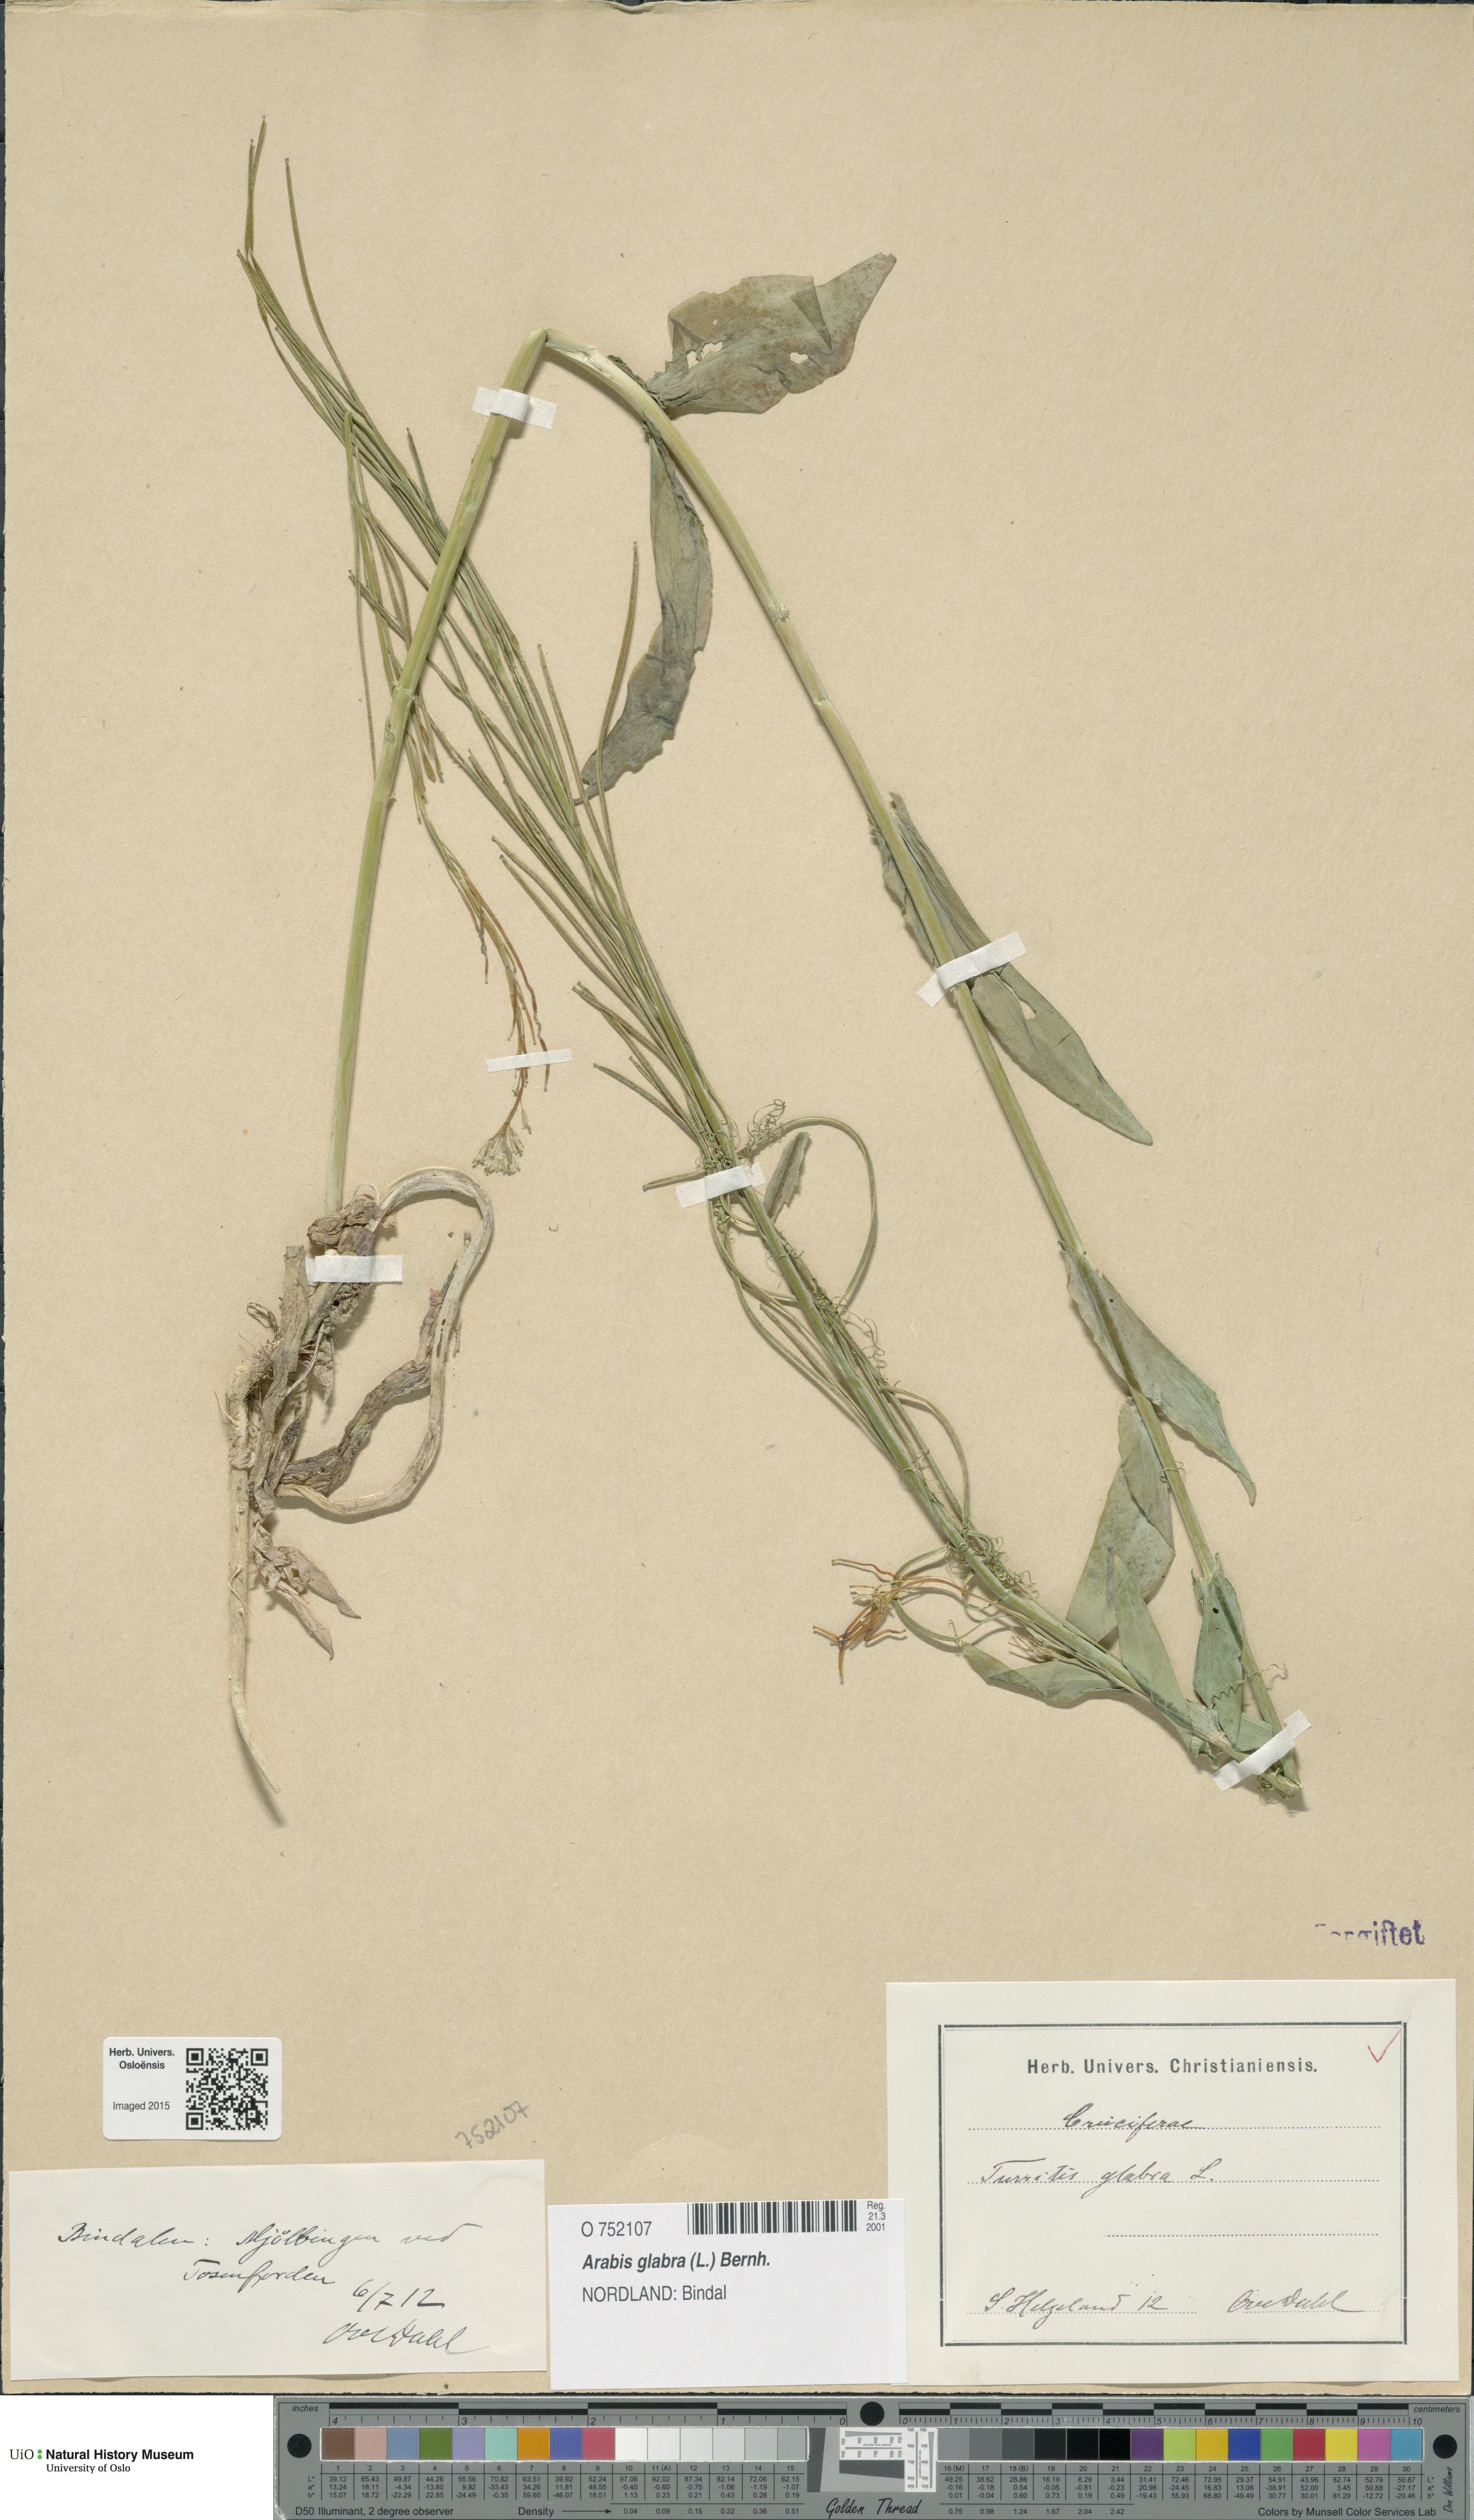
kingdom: Plantae
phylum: Tracheophyta
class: Magnoliopsida
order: Brassicales
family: Brassicaceae
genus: Turritis
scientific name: Turritis glabra
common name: Tower rockcress
